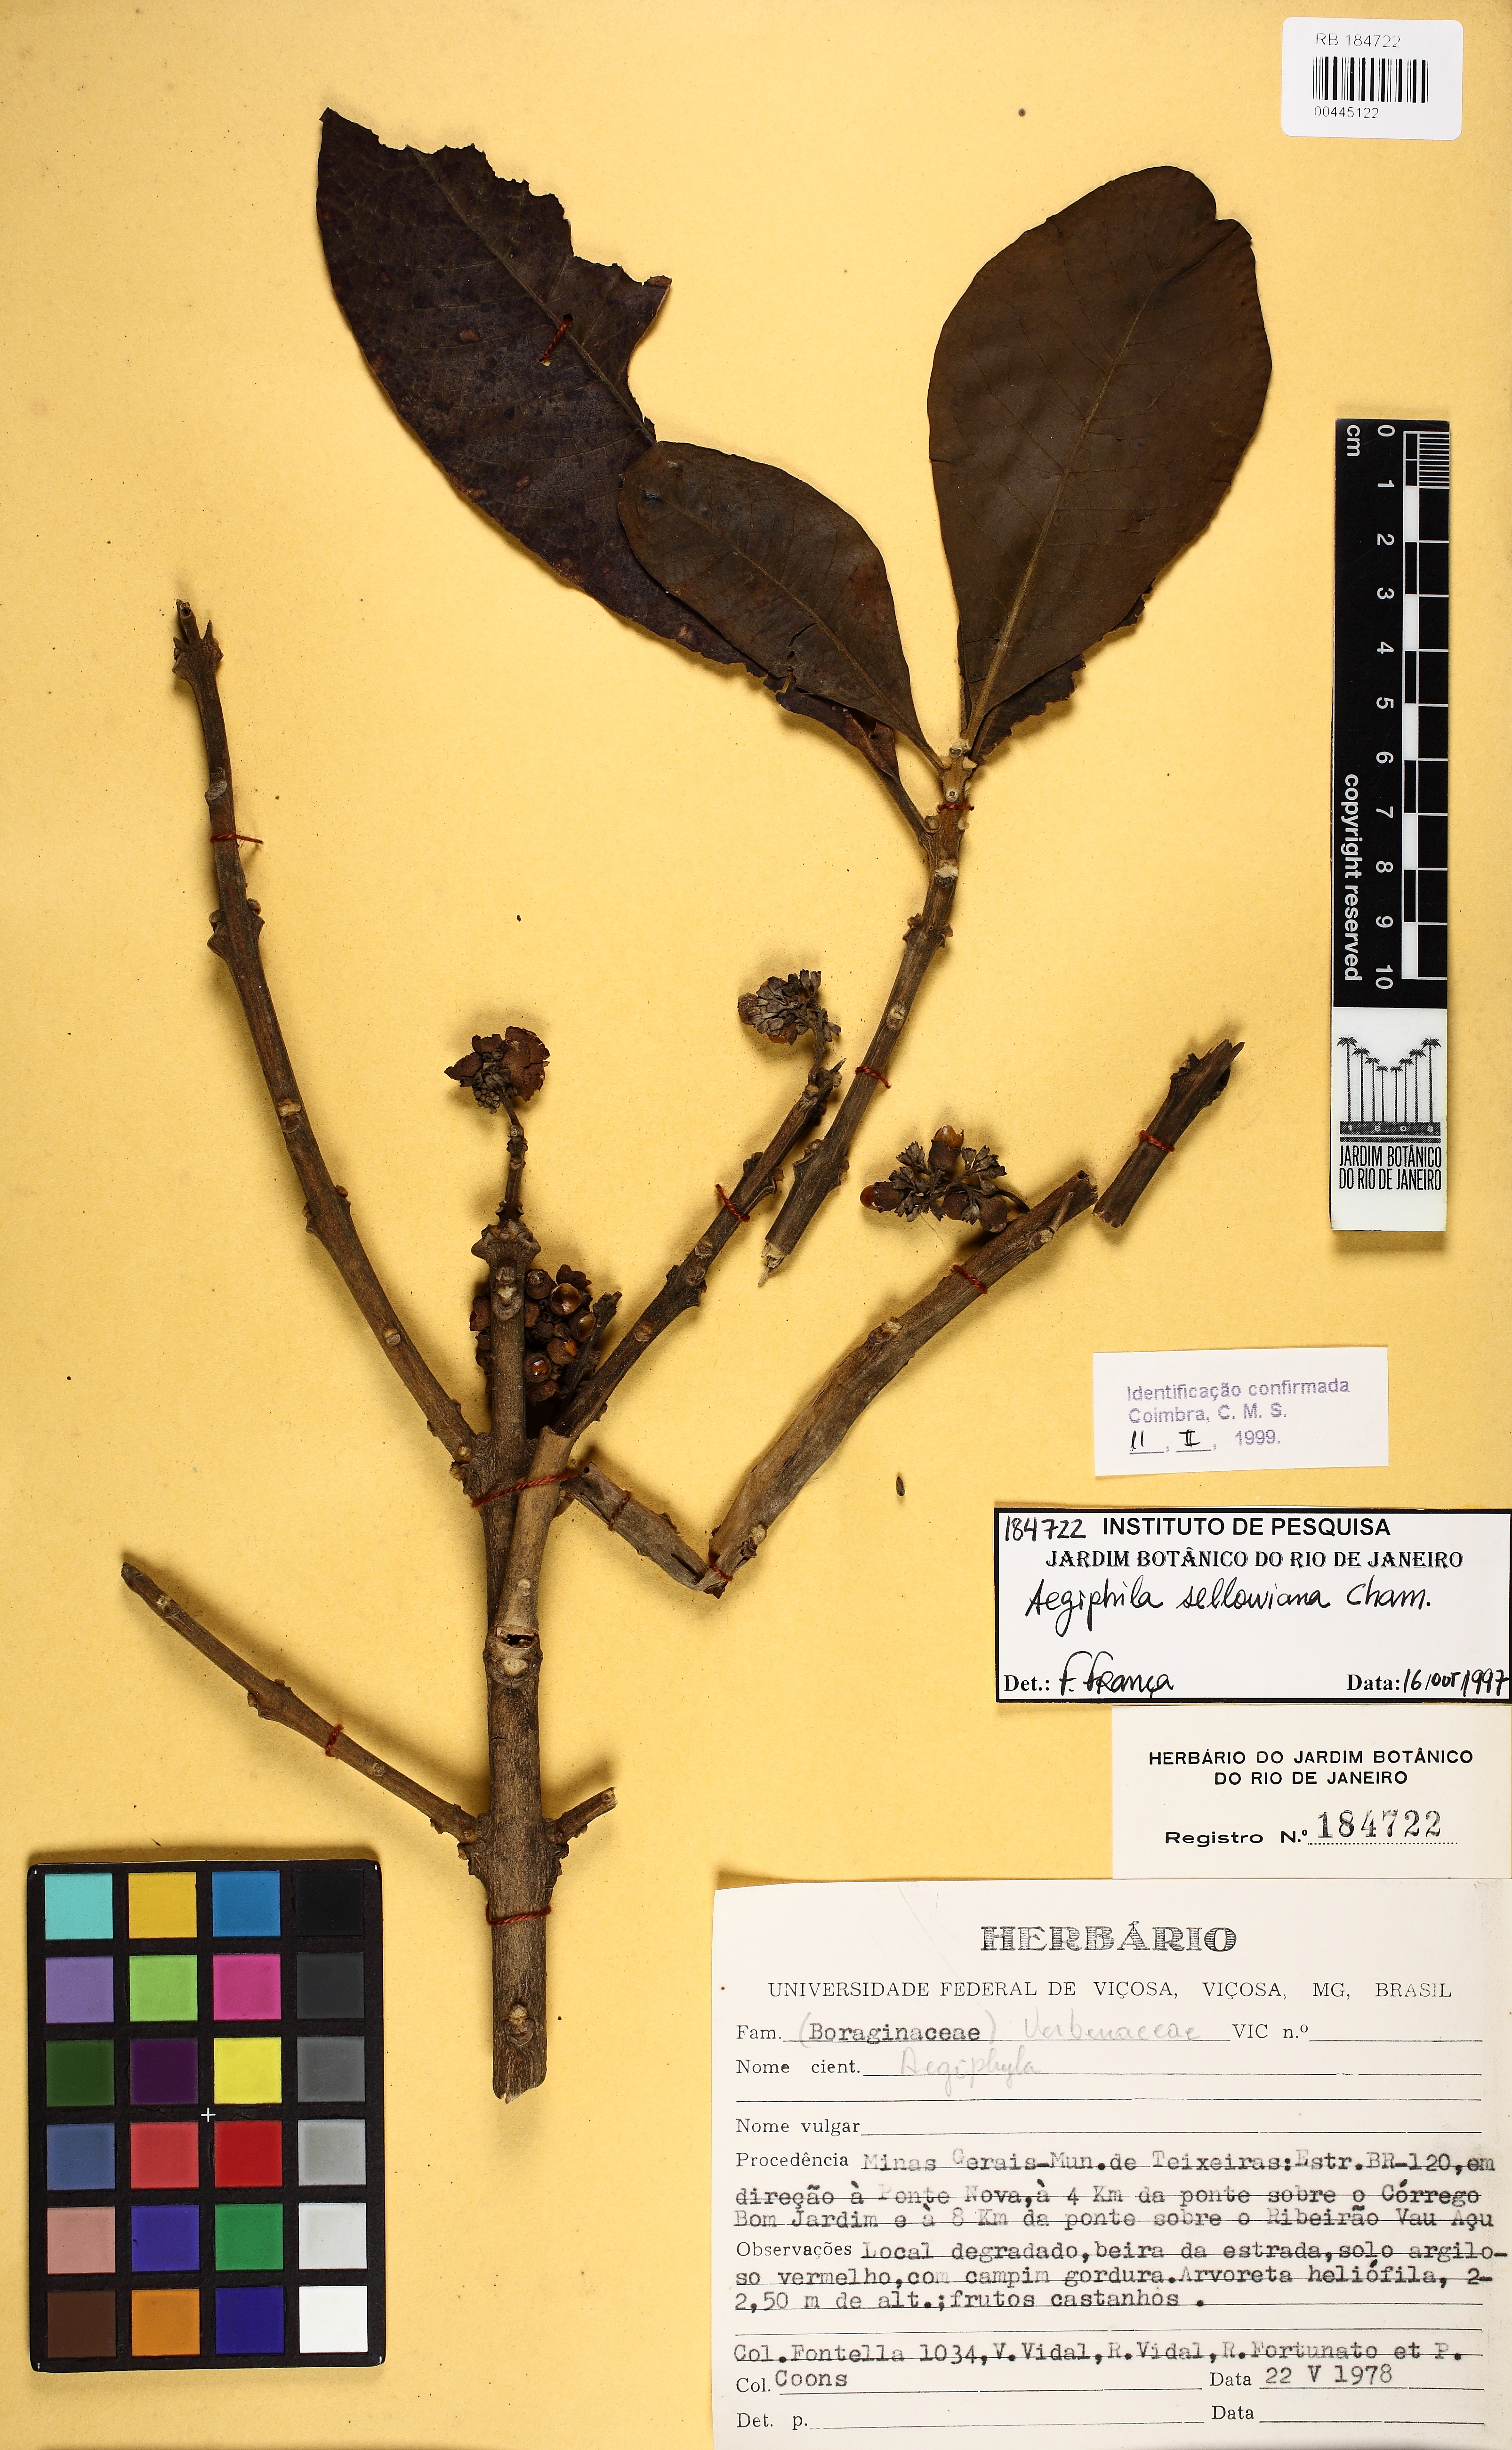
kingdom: Plantae
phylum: Tracheophyta
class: Magnoliopsida
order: Lamiales
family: Lamiaceae
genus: Aegiphila
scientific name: Aegiphila verticillata
